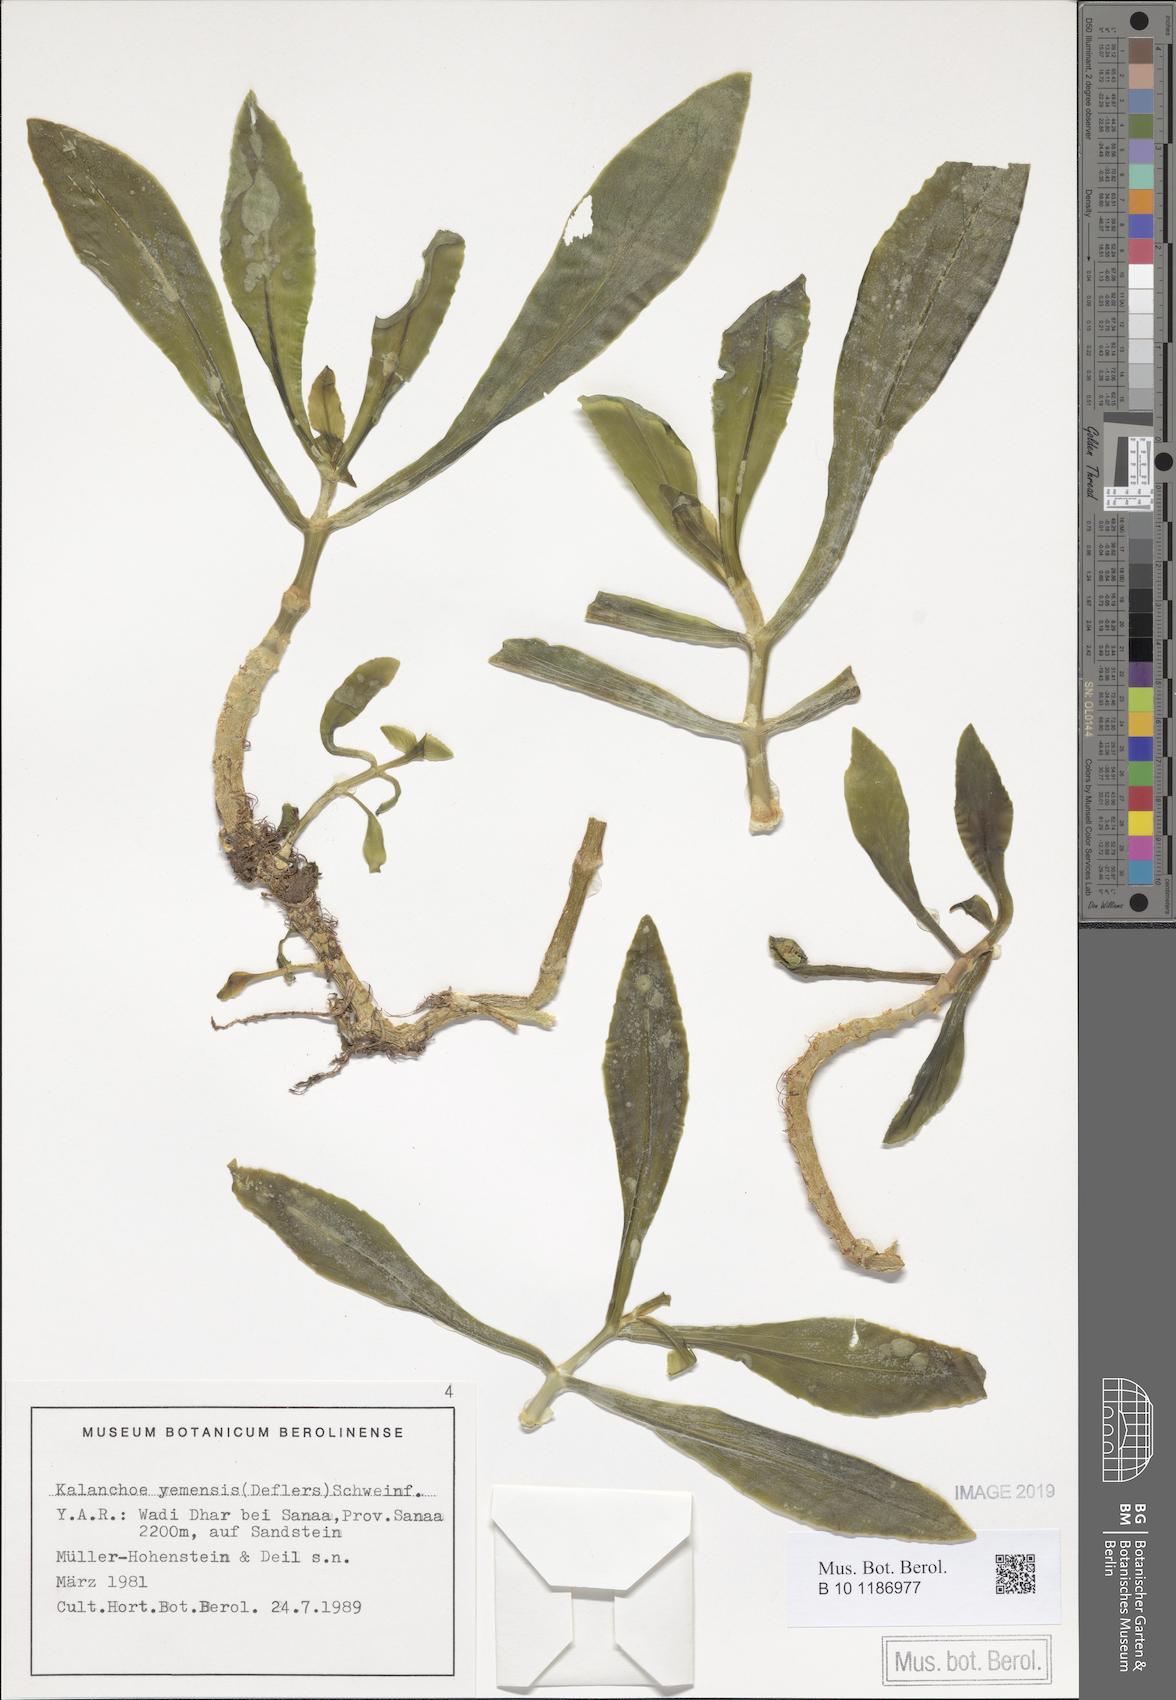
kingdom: Plantae
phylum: Tracheophyta
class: Magnoliopsida
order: Saxifragales
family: Crassulaceae
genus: Kalanchoe
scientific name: Kalanchoe yemensis
